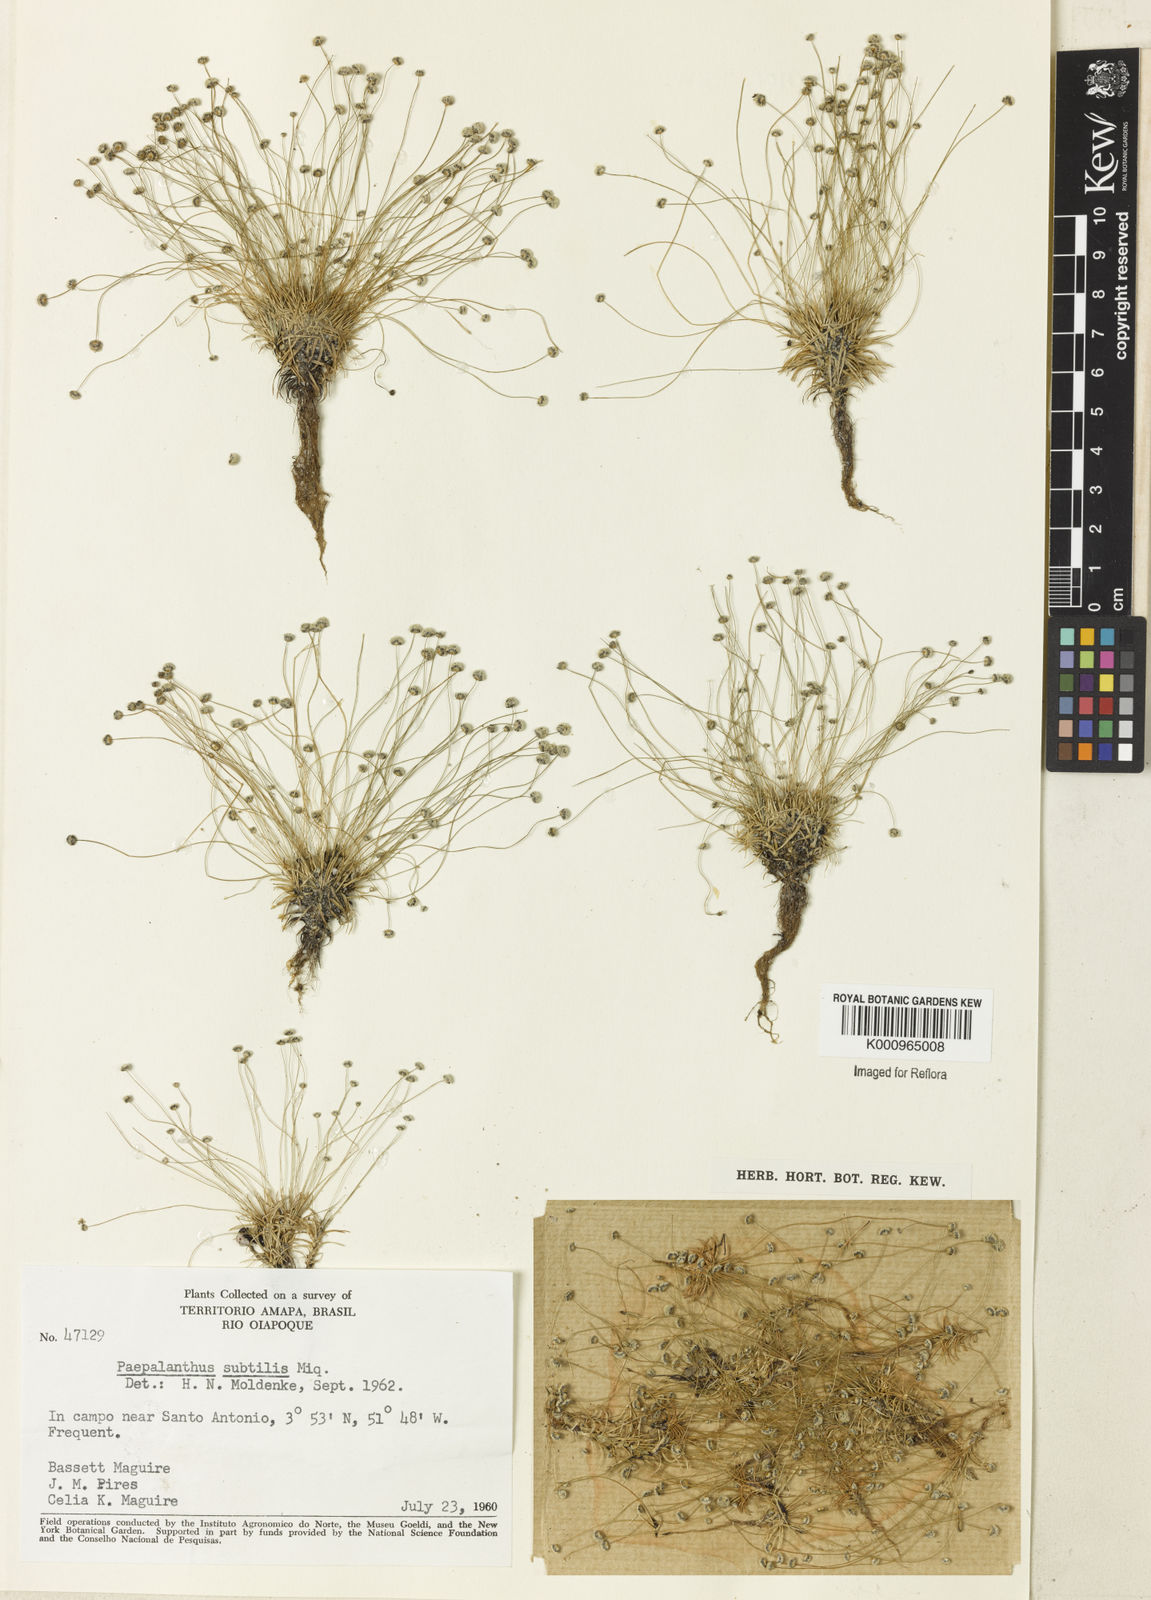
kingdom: Plantae
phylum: Tracheophyta
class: Liliopsida
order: Poales
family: Eriocaulaceae
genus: Paepalanthus
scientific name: Paepalanthus subtilis
